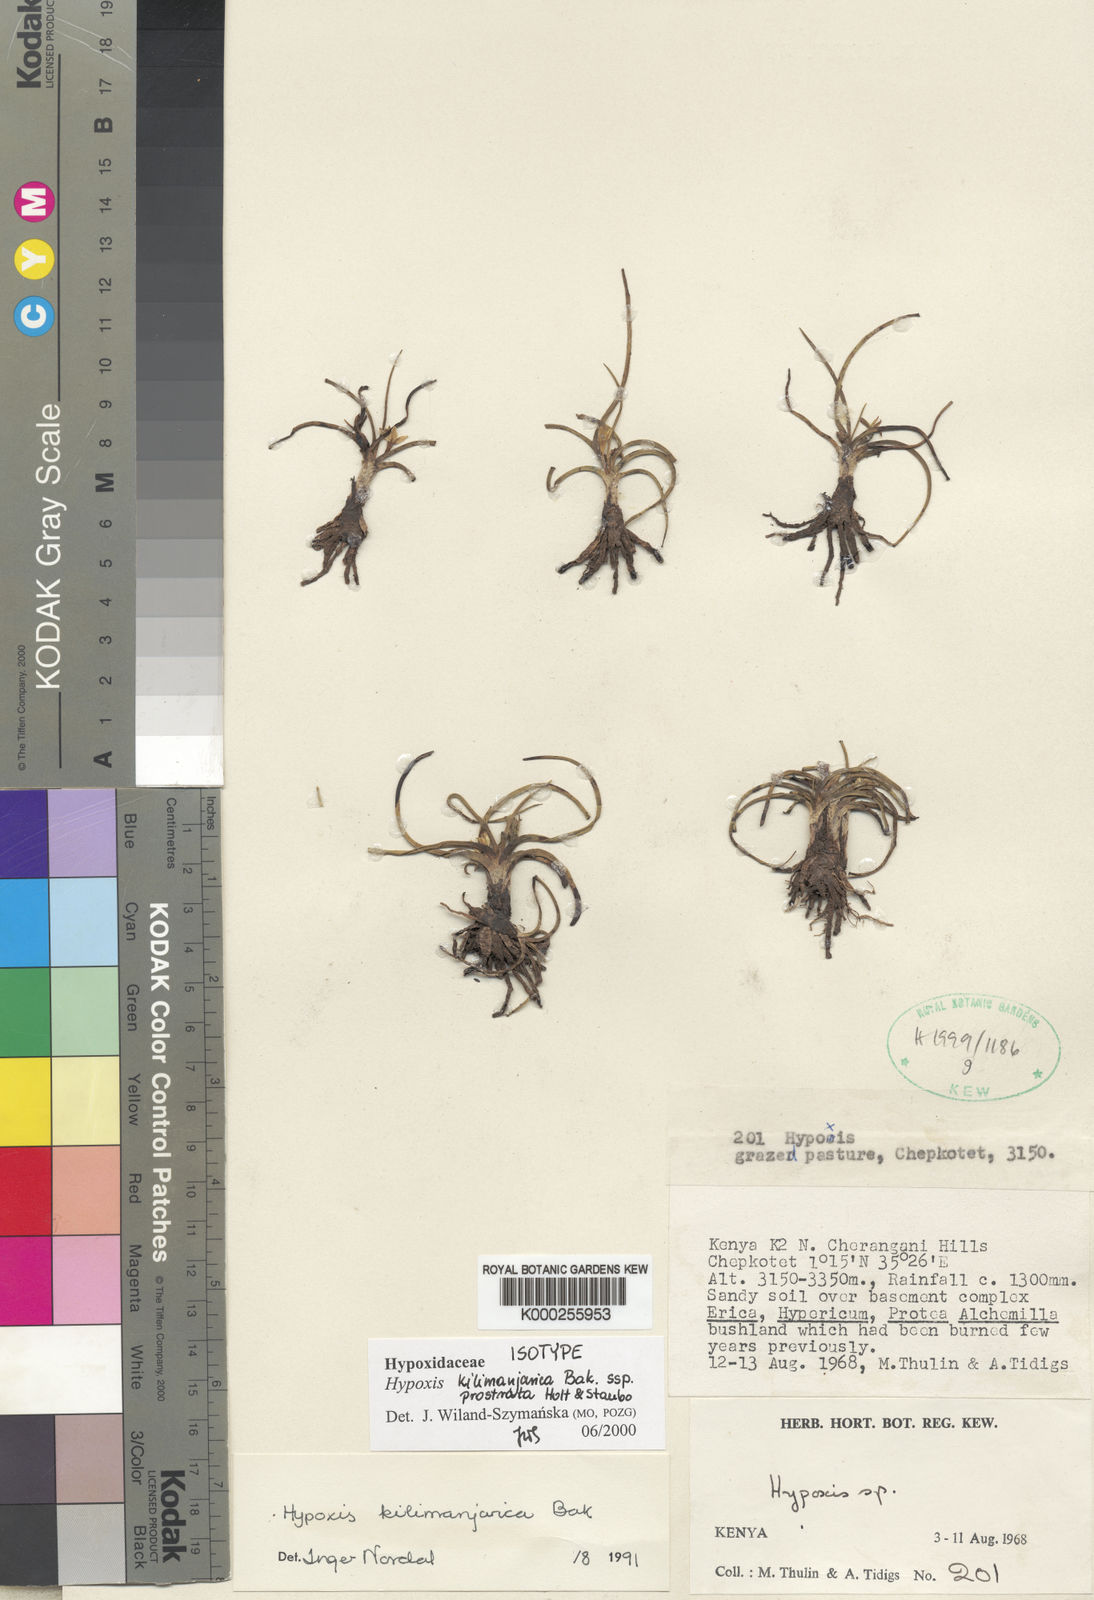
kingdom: Plantae
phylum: Tracheophyta
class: Liliopsida
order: Asparagales
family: Hypoxidaceae
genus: Hypoxis
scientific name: Hypoxis kilimanjarica
